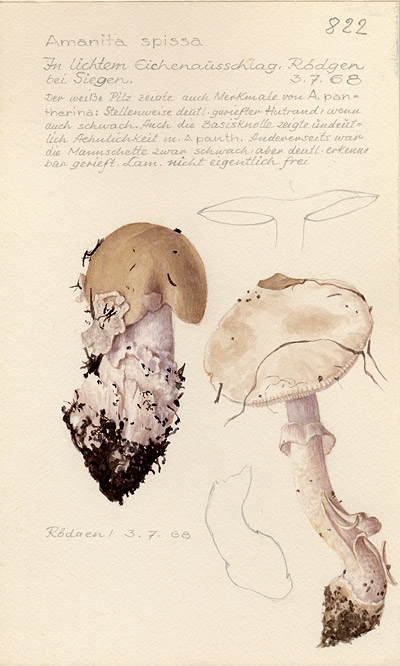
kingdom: Fungi
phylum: Basidiomycota
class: Agaricomycetes
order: Agaricales
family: Amanitaceae
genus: Amanita
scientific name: Amanita excelsa
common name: European false blusher
